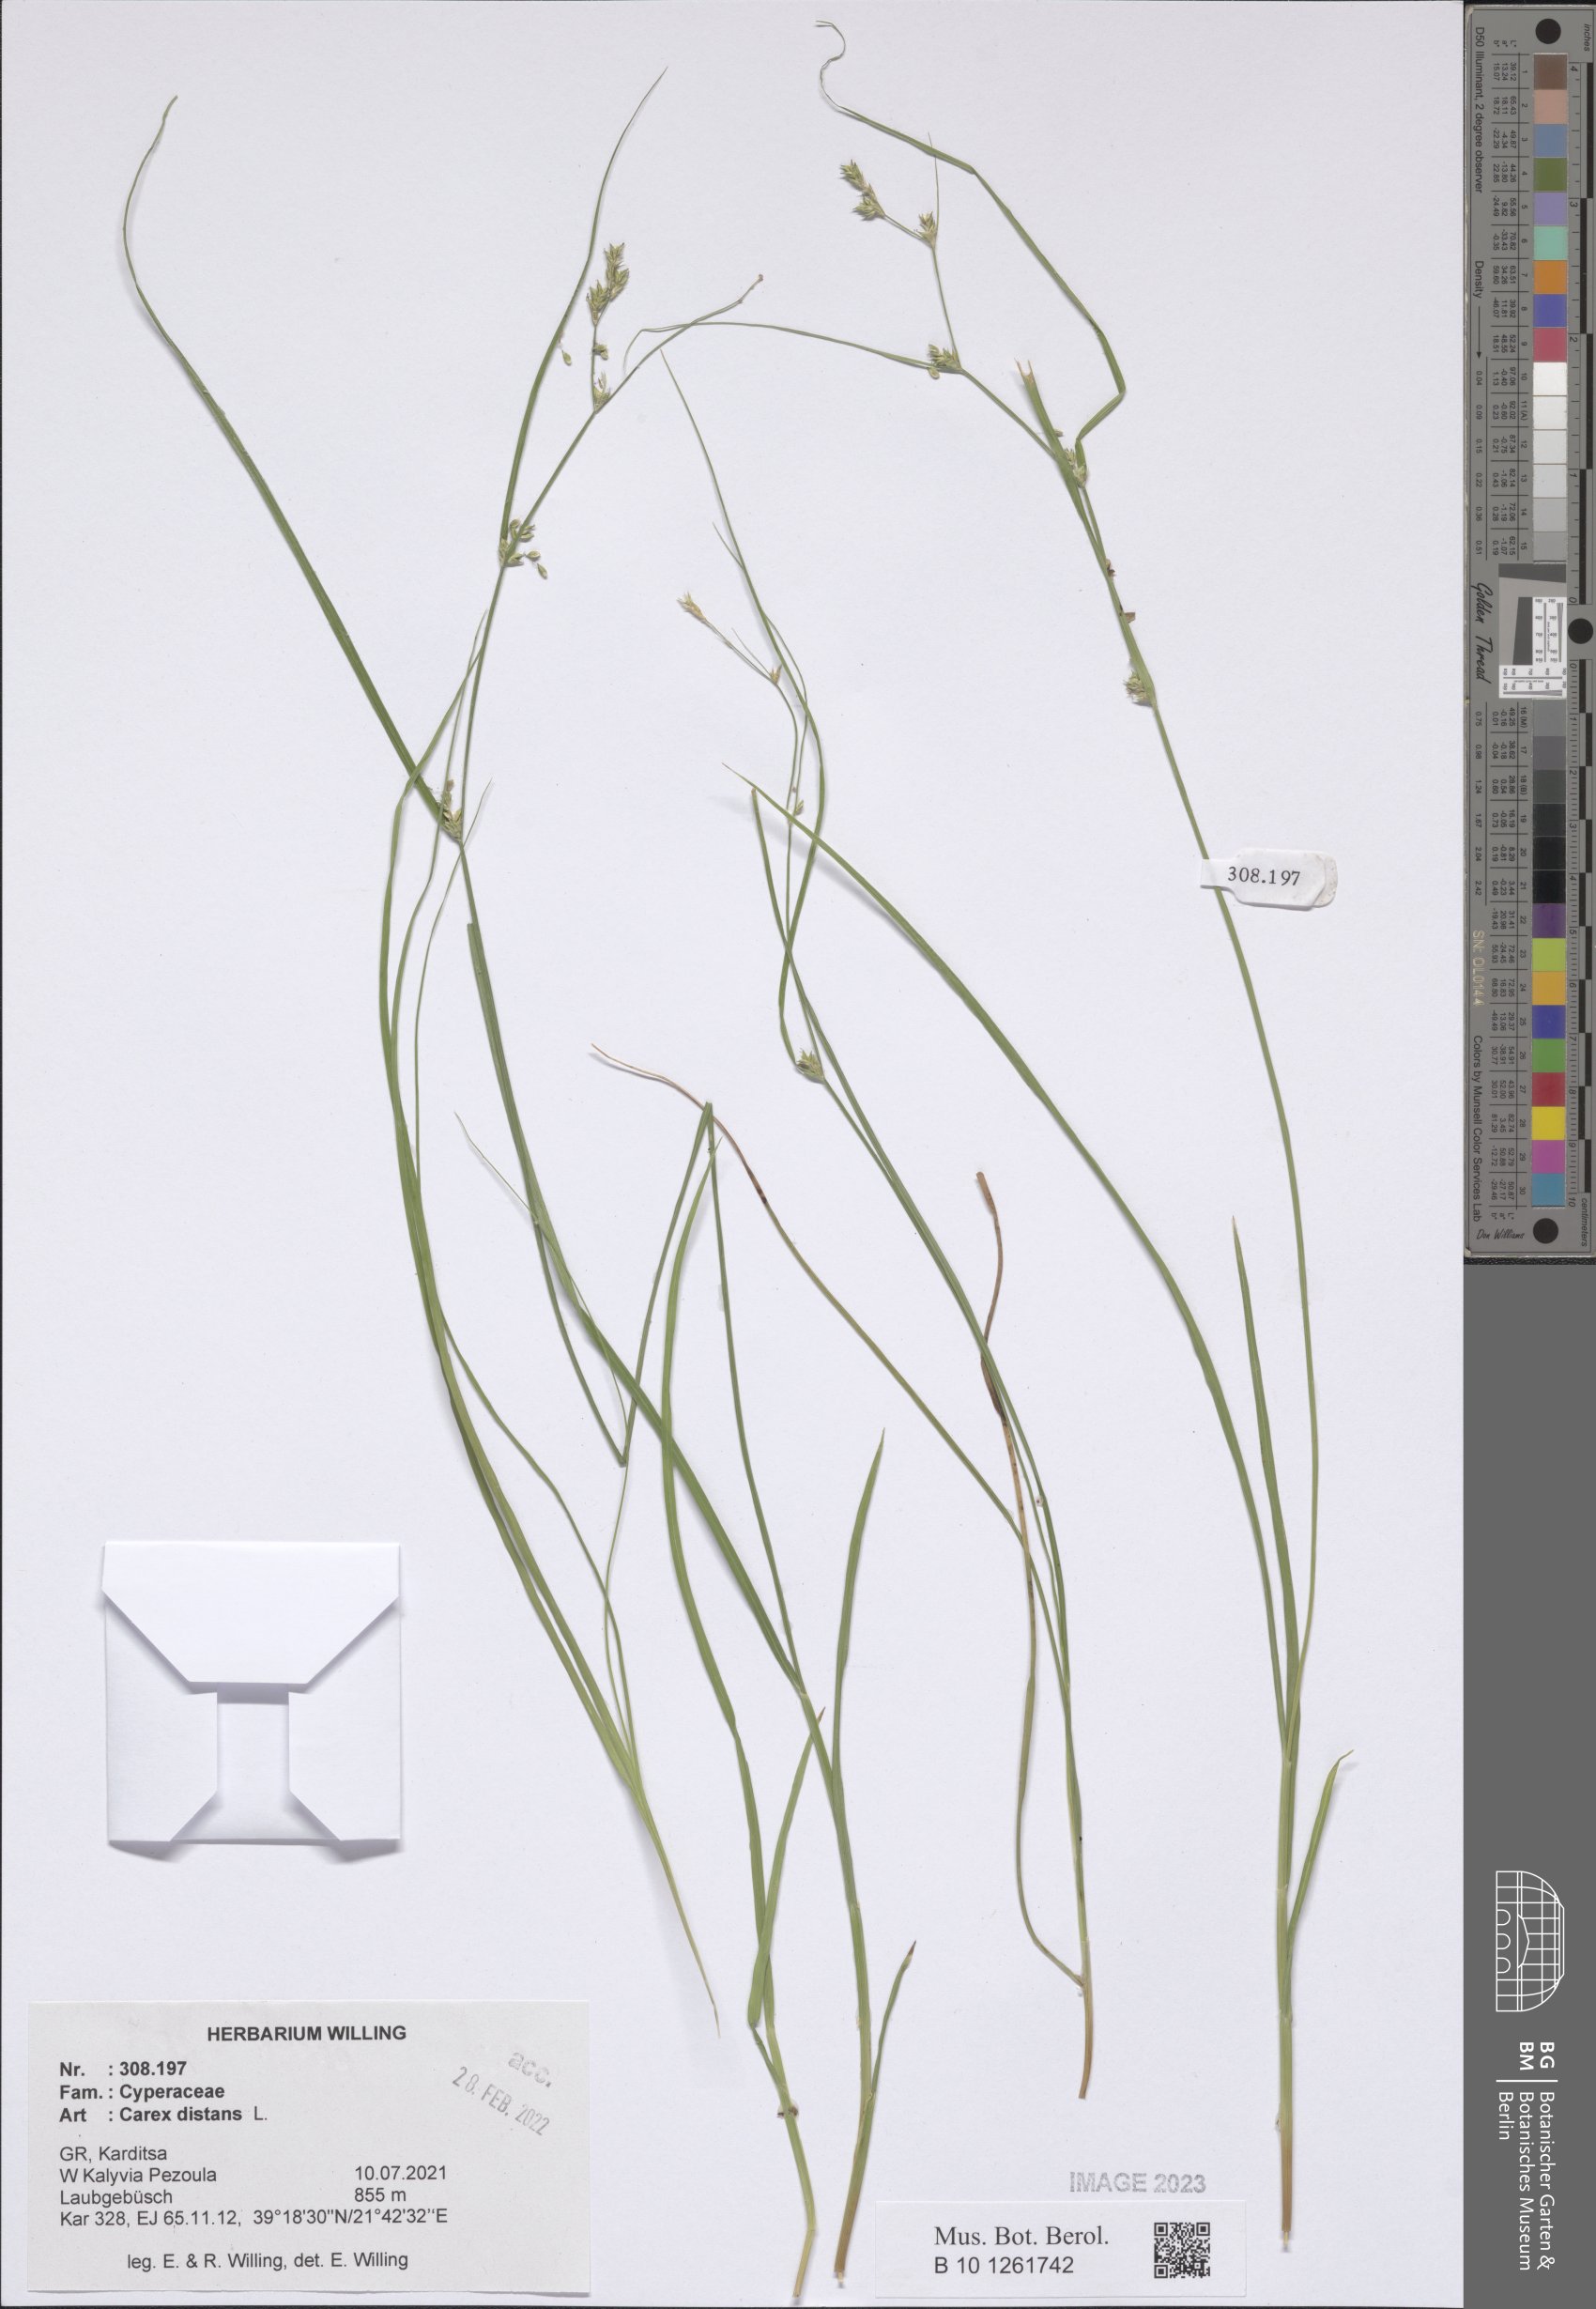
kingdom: Plantae
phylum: Tracheophyta
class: Liliopsida
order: Poales
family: Cyperaceae
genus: Carex
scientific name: Carex distans
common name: Distant sedge
